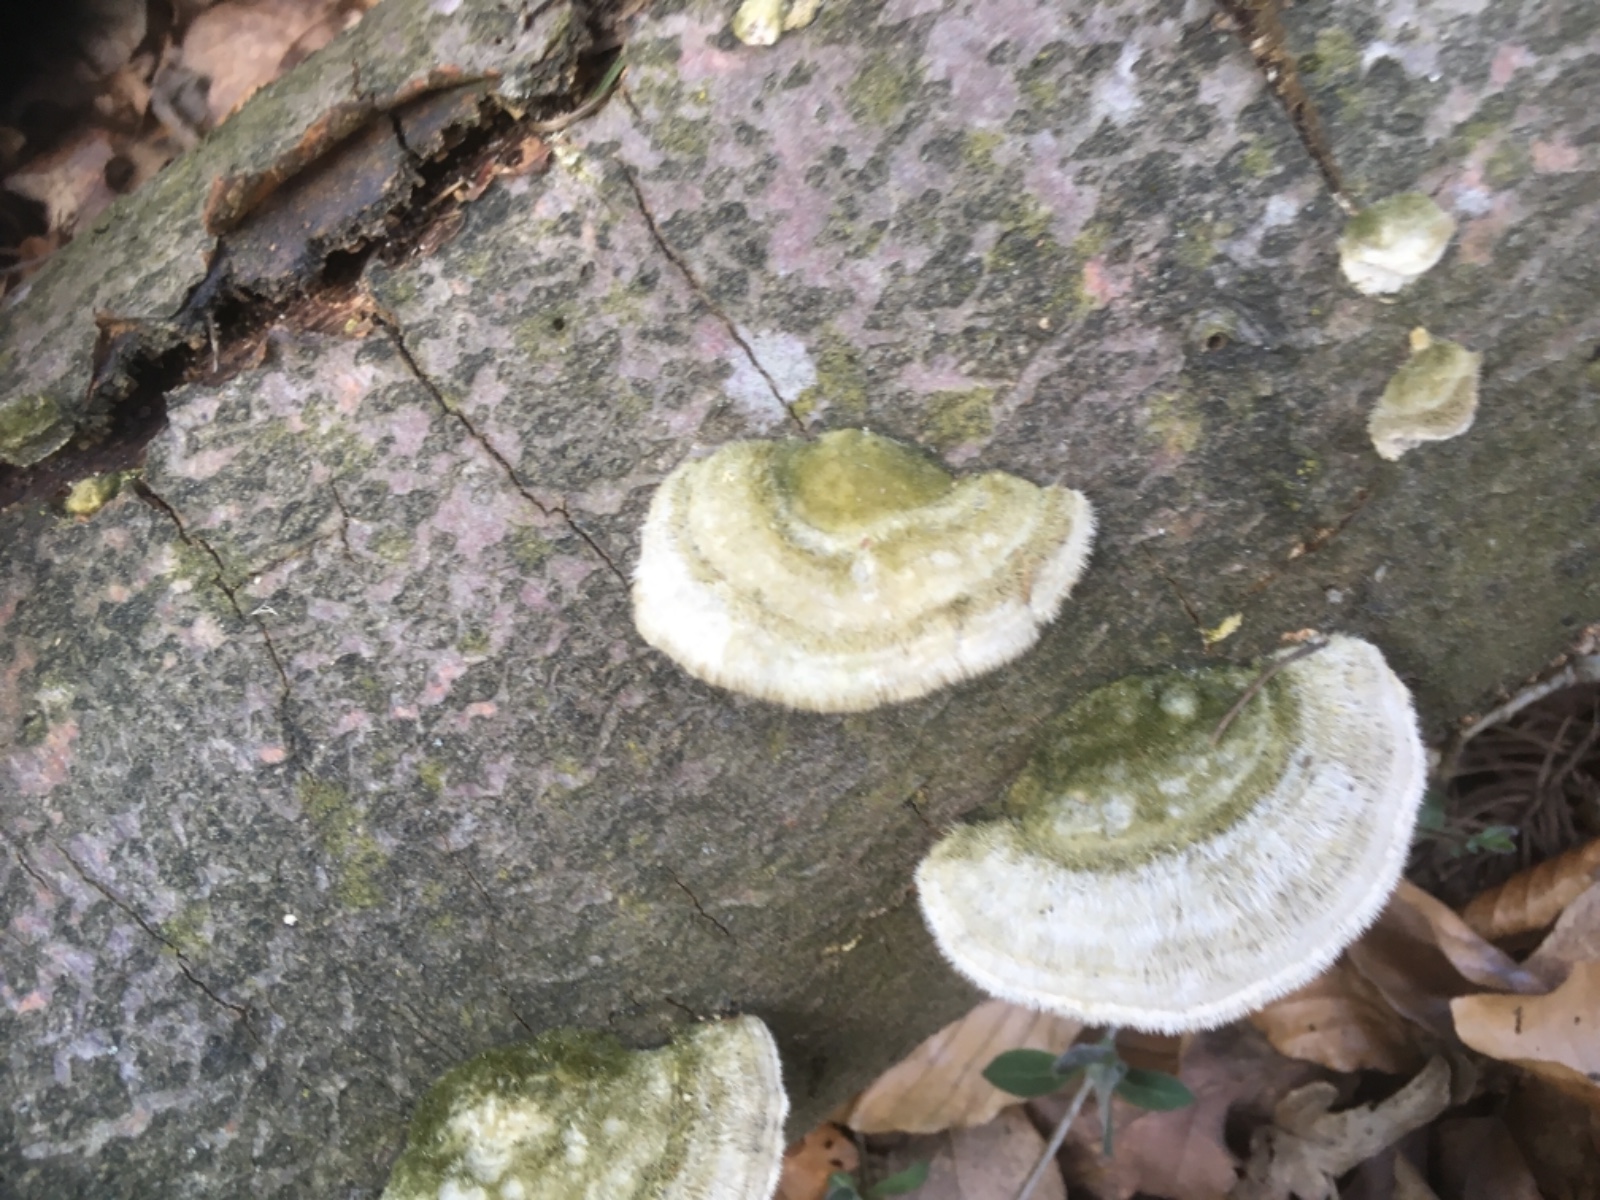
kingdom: Fungi
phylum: Basidiomycota
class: Agaricomycetes
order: Polyporales
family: Polyporaceae
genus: Trametes
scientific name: Trametes hirsuta
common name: håret læderporesvamp
